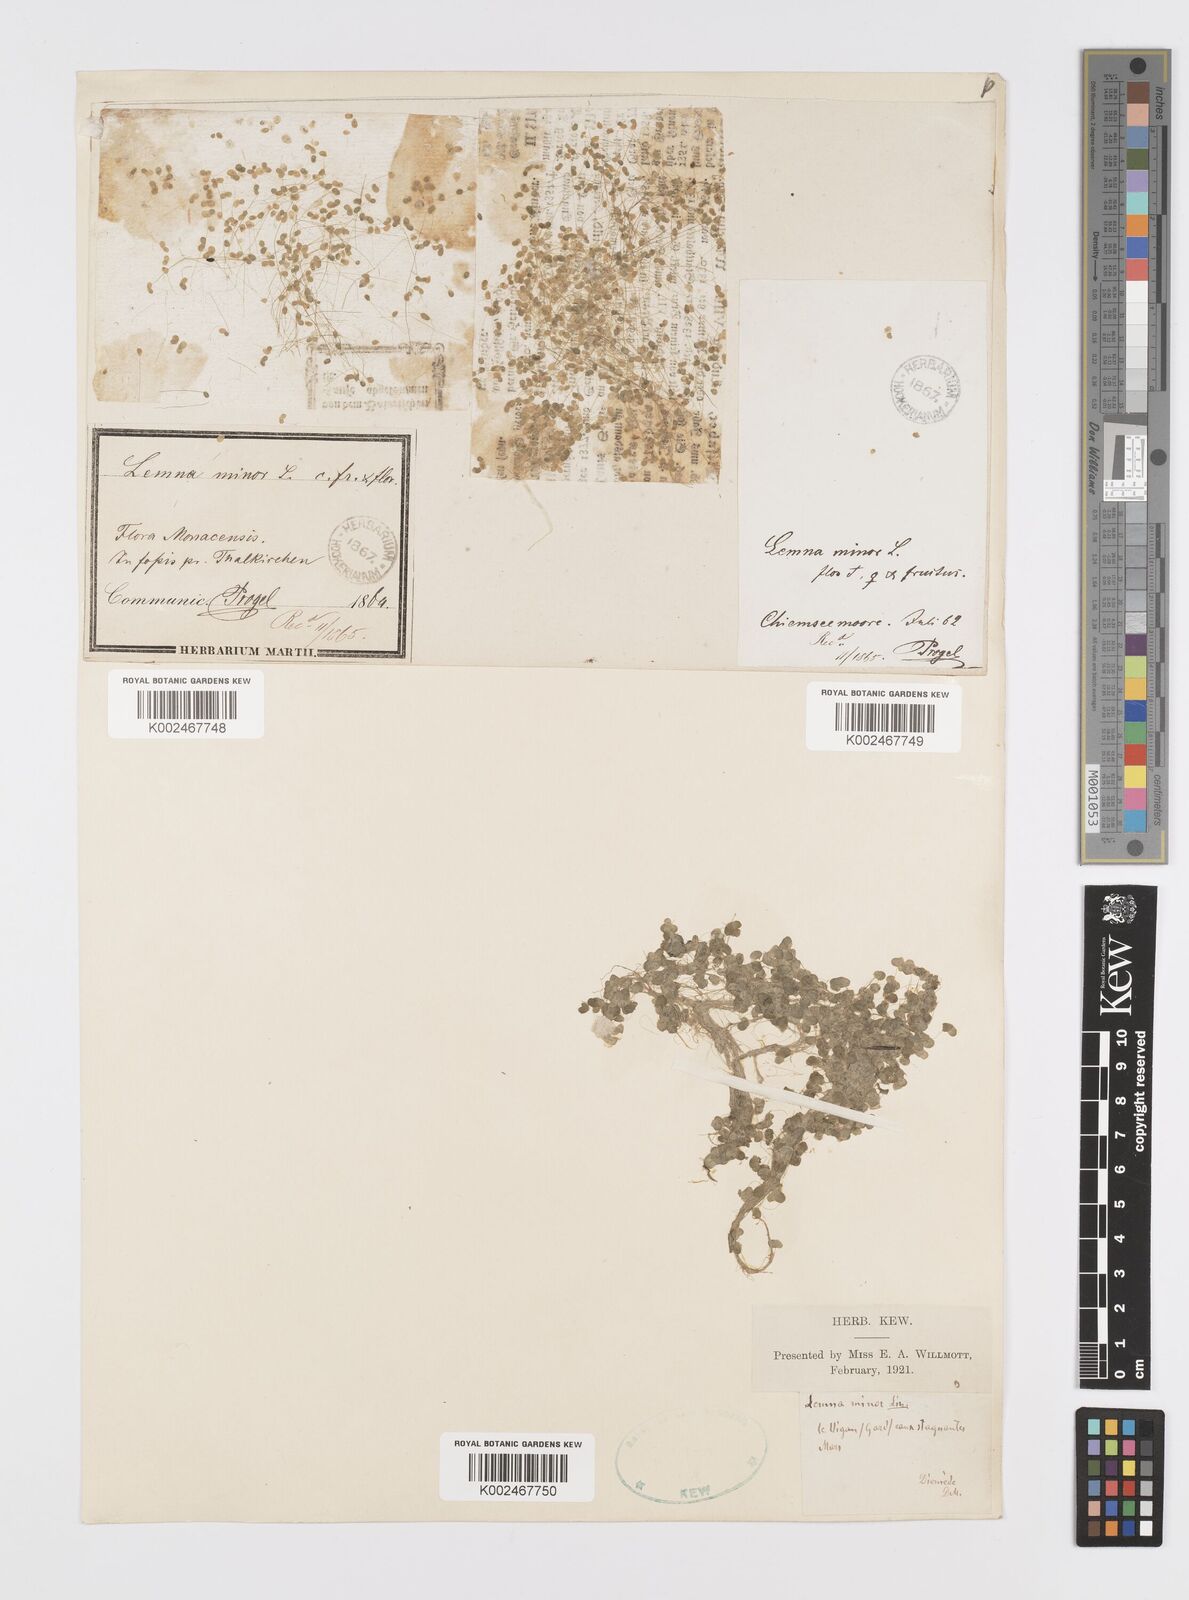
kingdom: Plantae
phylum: Tracheophyta
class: Liliopsida
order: Alismatales
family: Araceae
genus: Lemna
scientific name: Lemna minor
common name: Common duckweed
